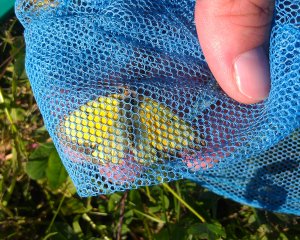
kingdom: Animalia
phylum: Arthropoda
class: Insecta
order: Lepidoptera
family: Pieridae
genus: Colias
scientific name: Colias eurytheme
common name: Orange Sulphur
